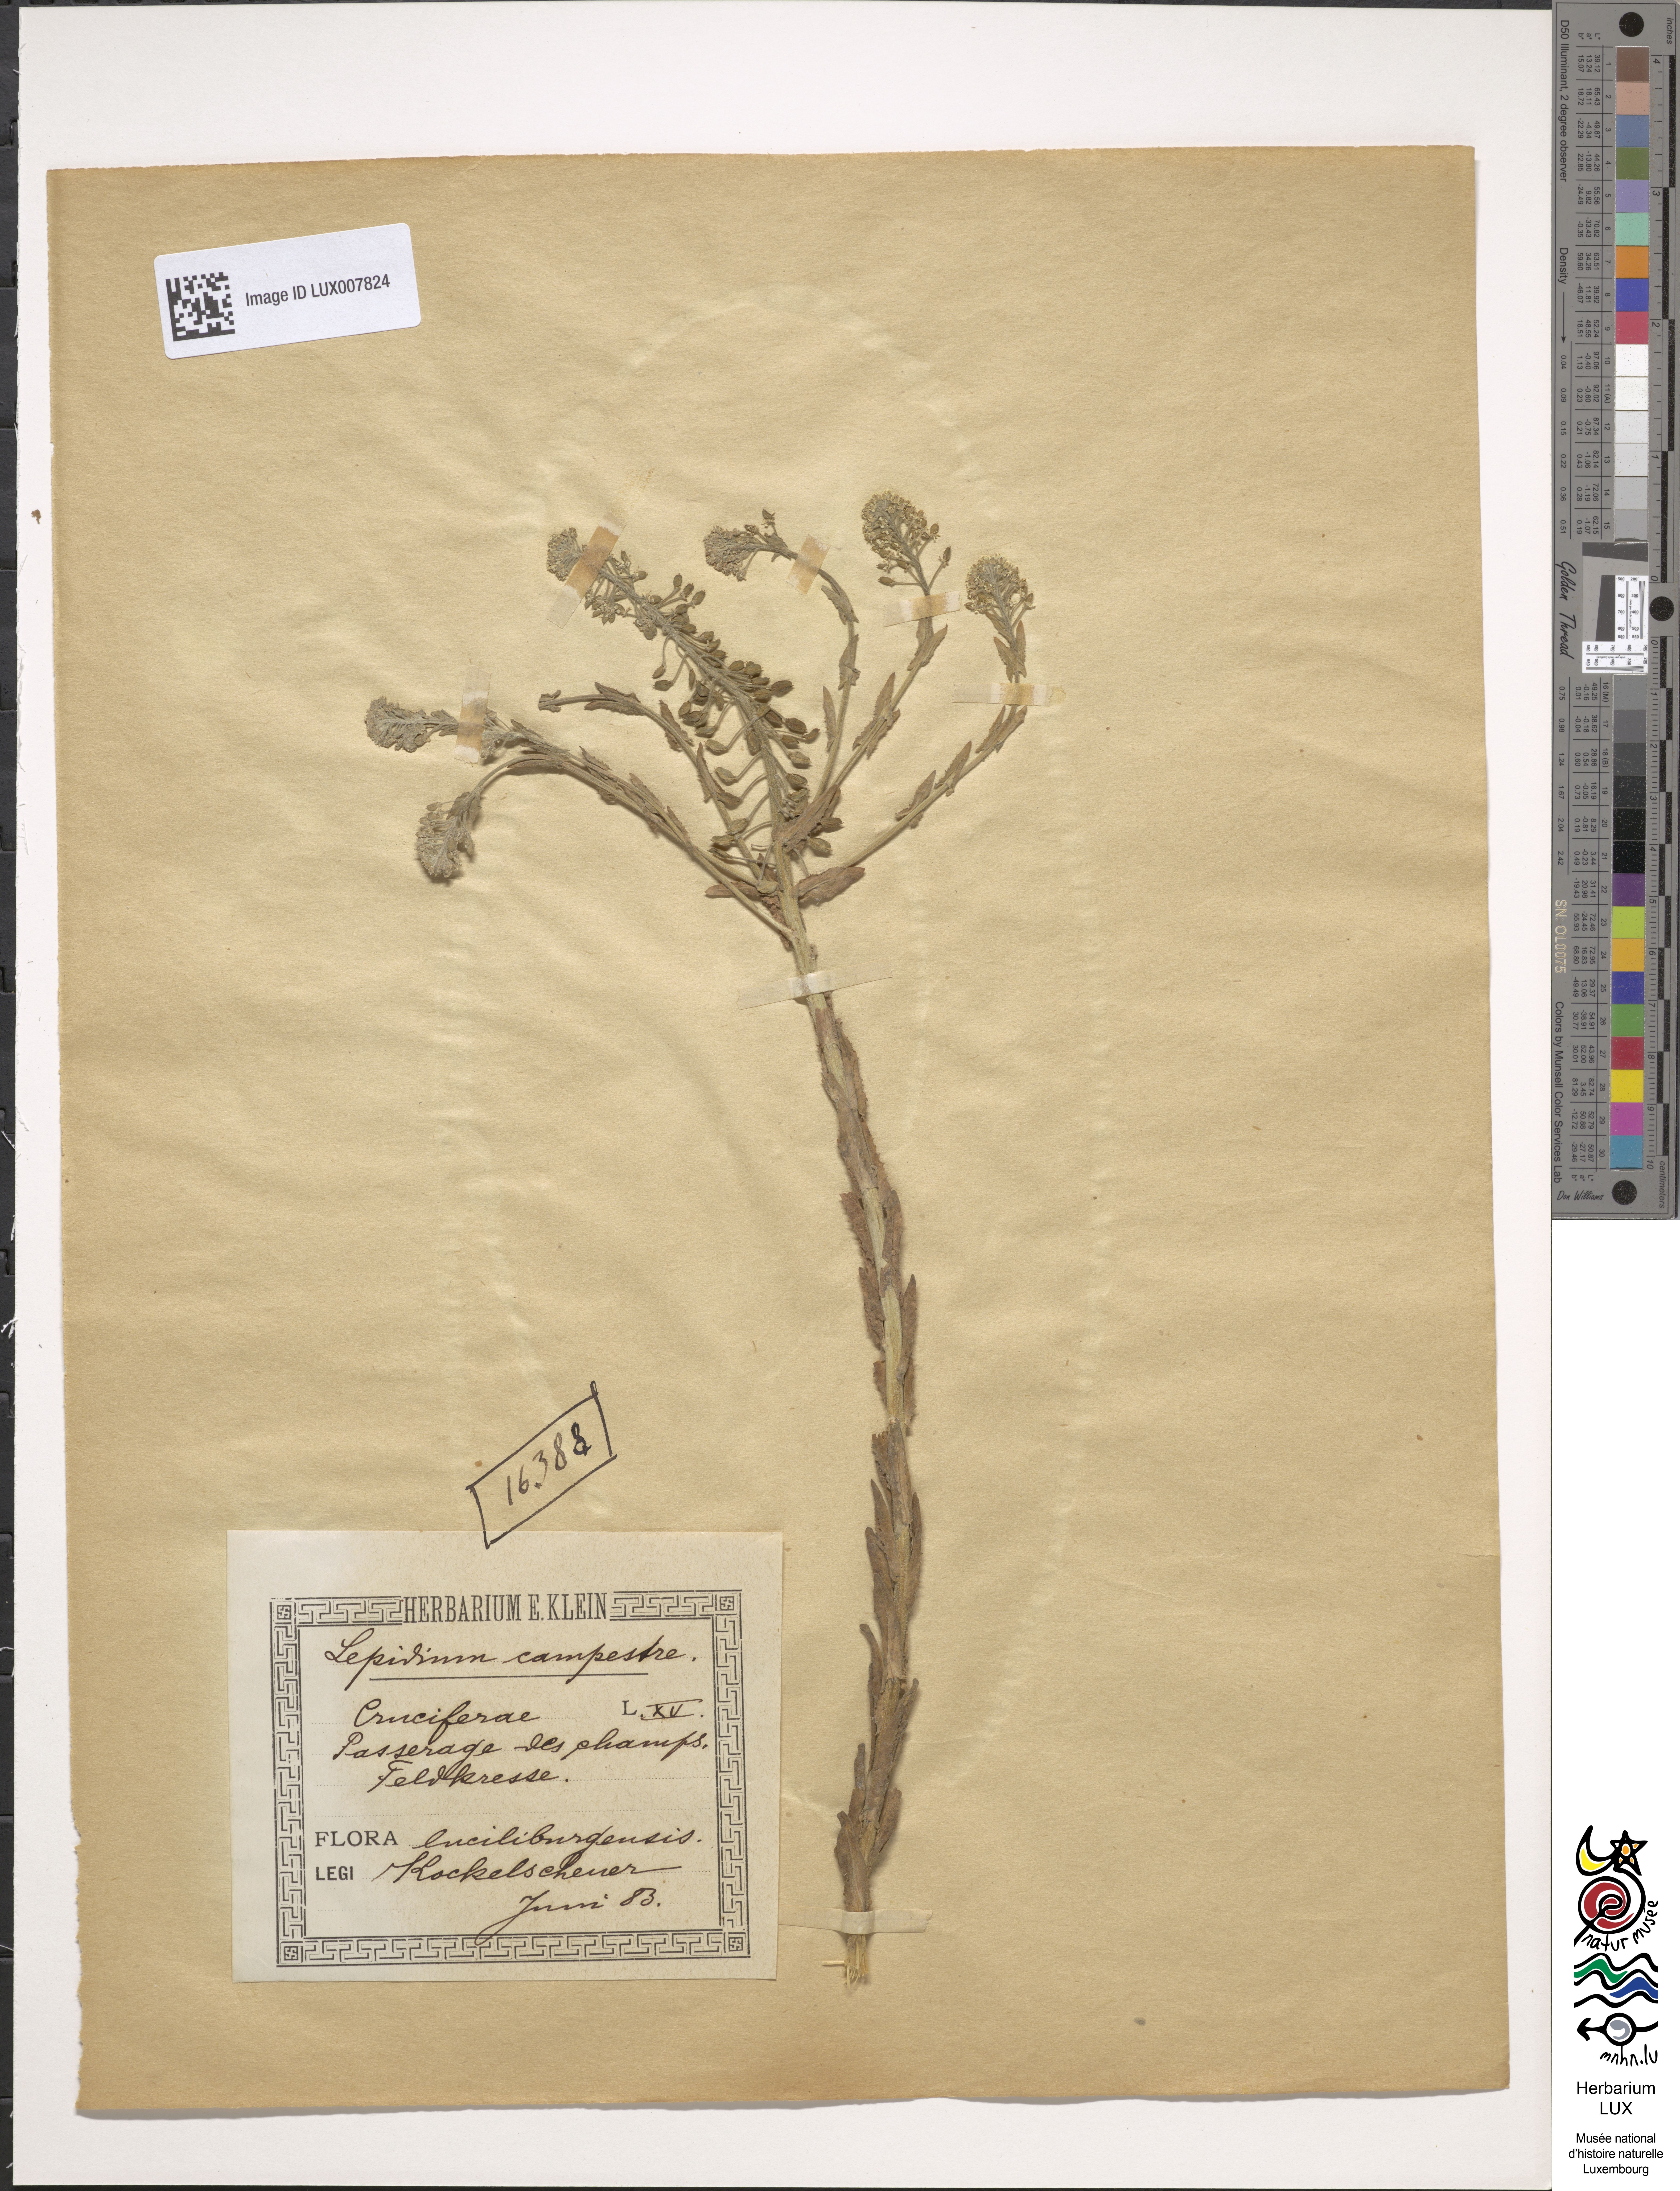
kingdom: Plantae
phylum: Tracheophyta
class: Magnoliopsida
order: Brassicales
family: Brassicaceae
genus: Lepidium
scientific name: Lepidium campestre
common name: Field pepperwort
